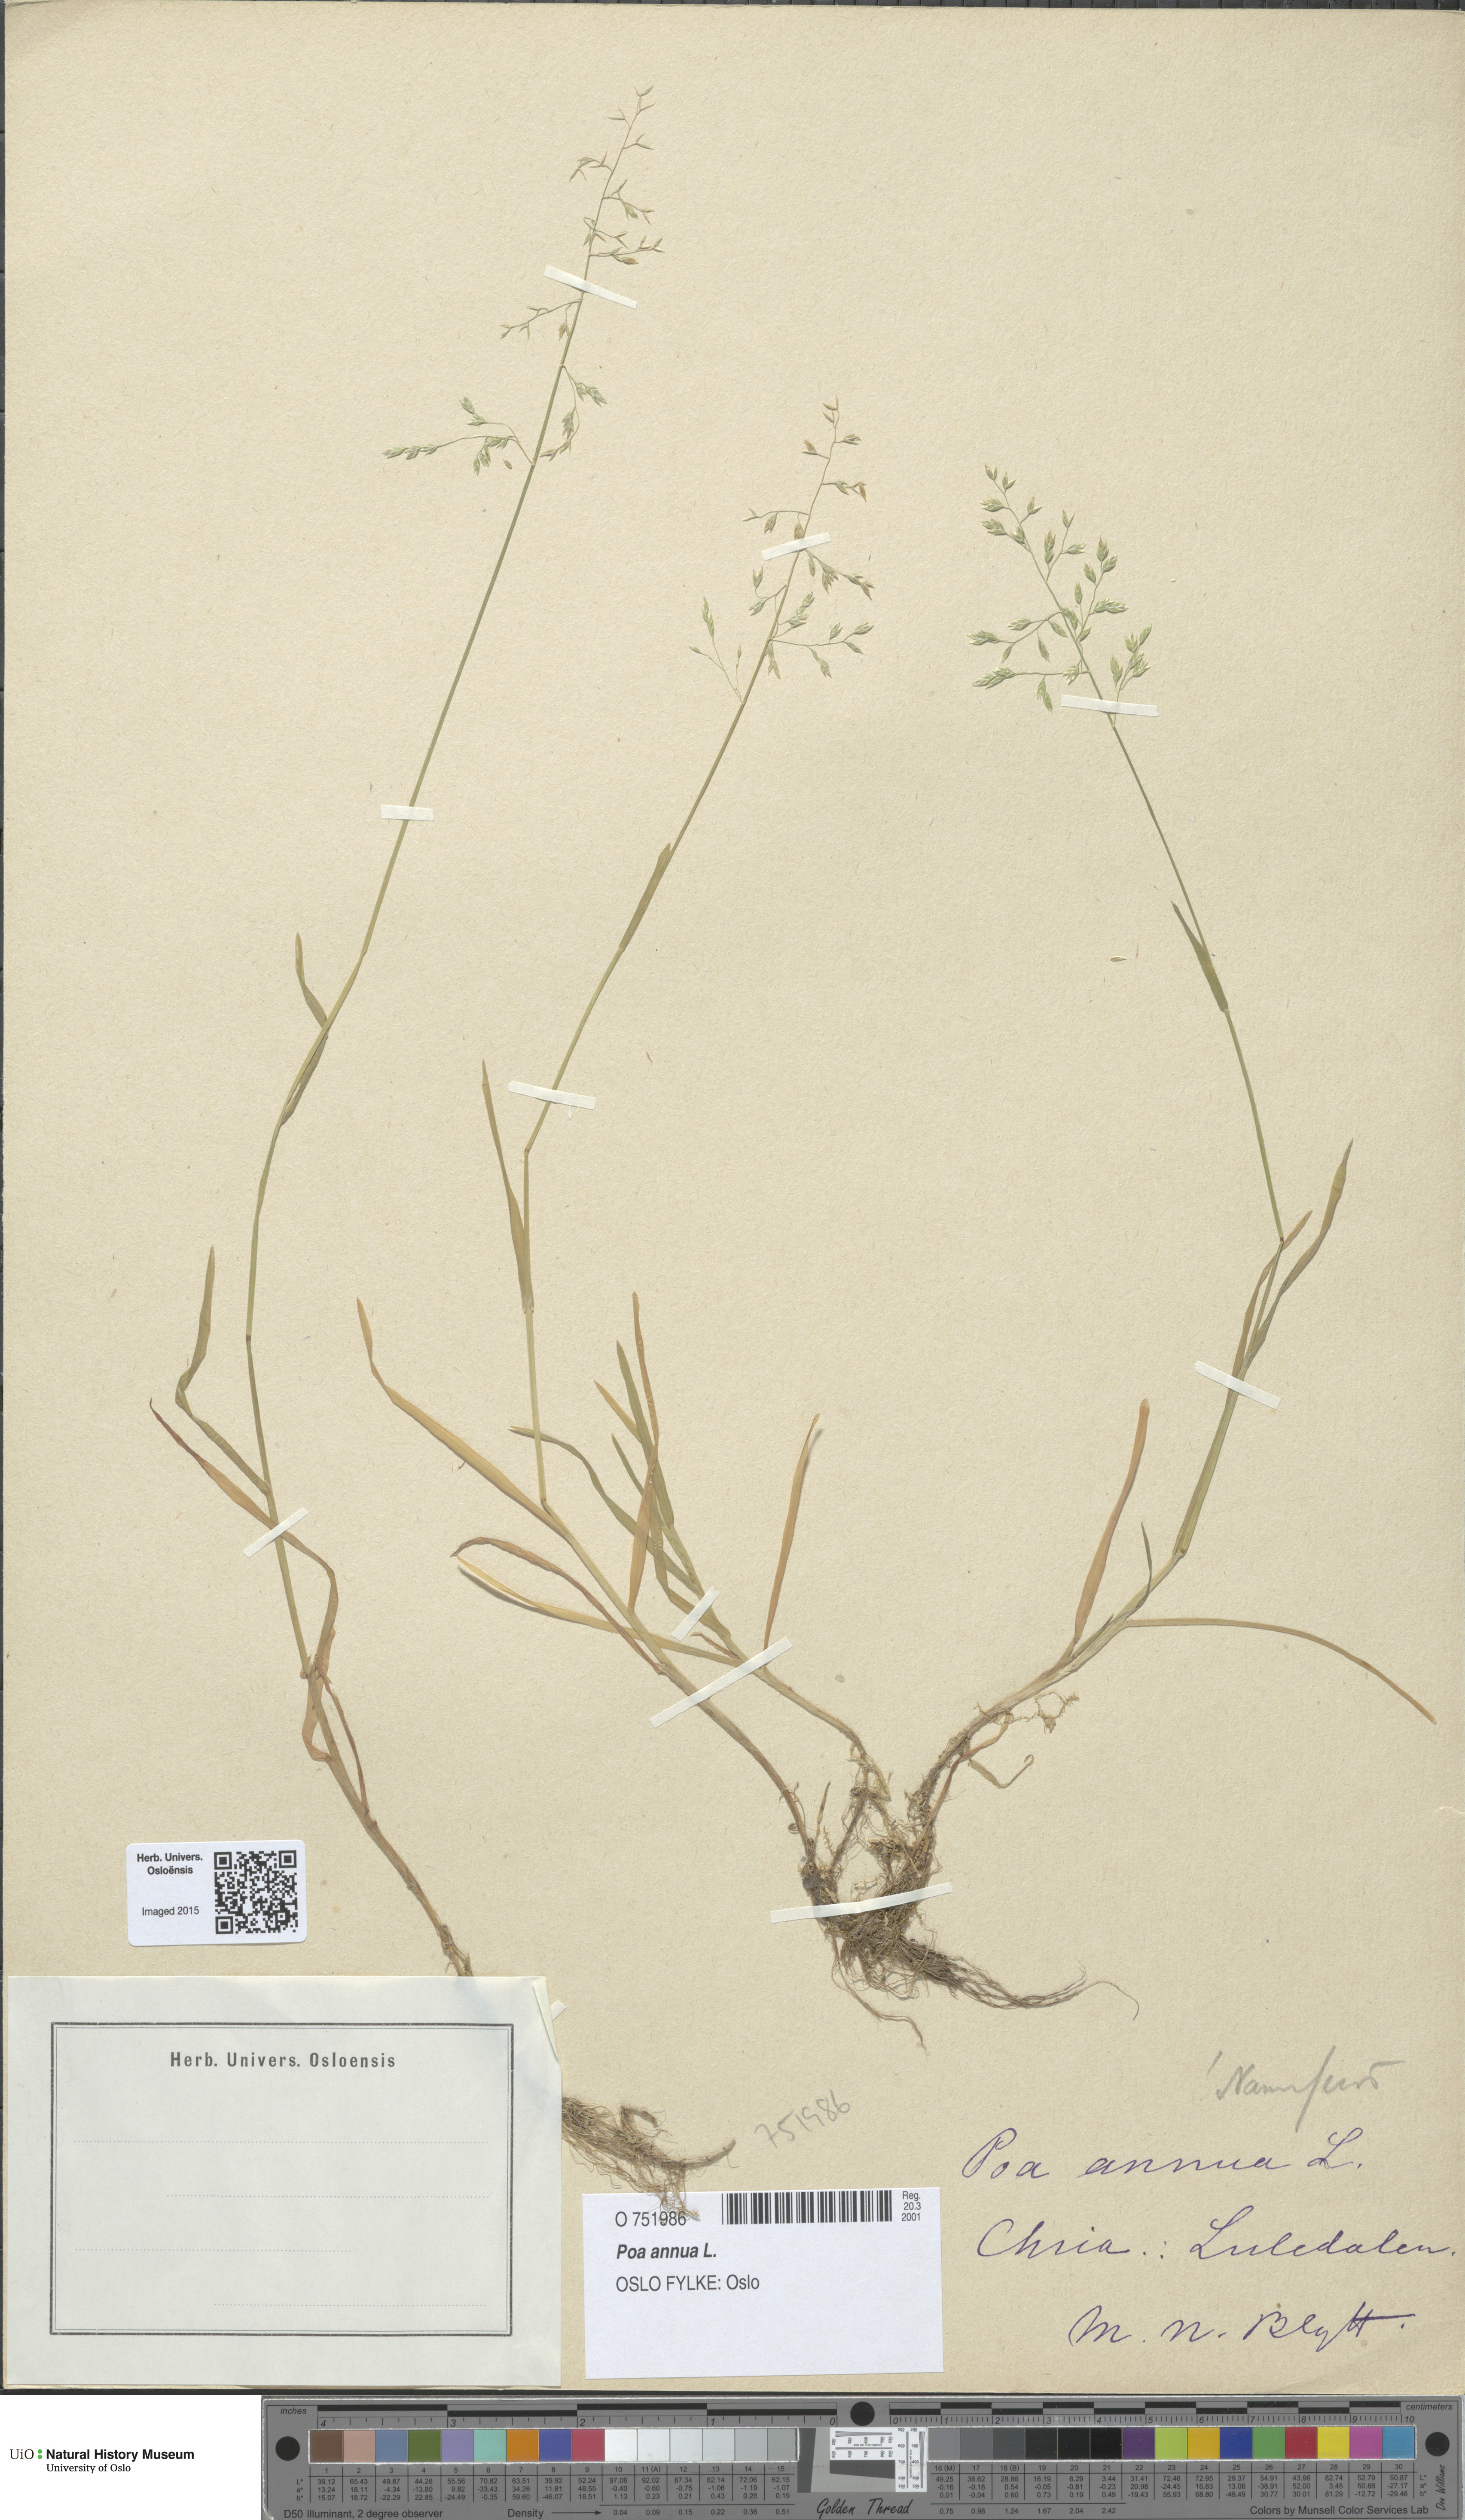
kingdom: Plantae
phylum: Tracheophyta
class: Liliopsida
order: Poales
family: Poaceae
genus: Poa
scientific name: Poa annua
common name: Annual bluegrass
